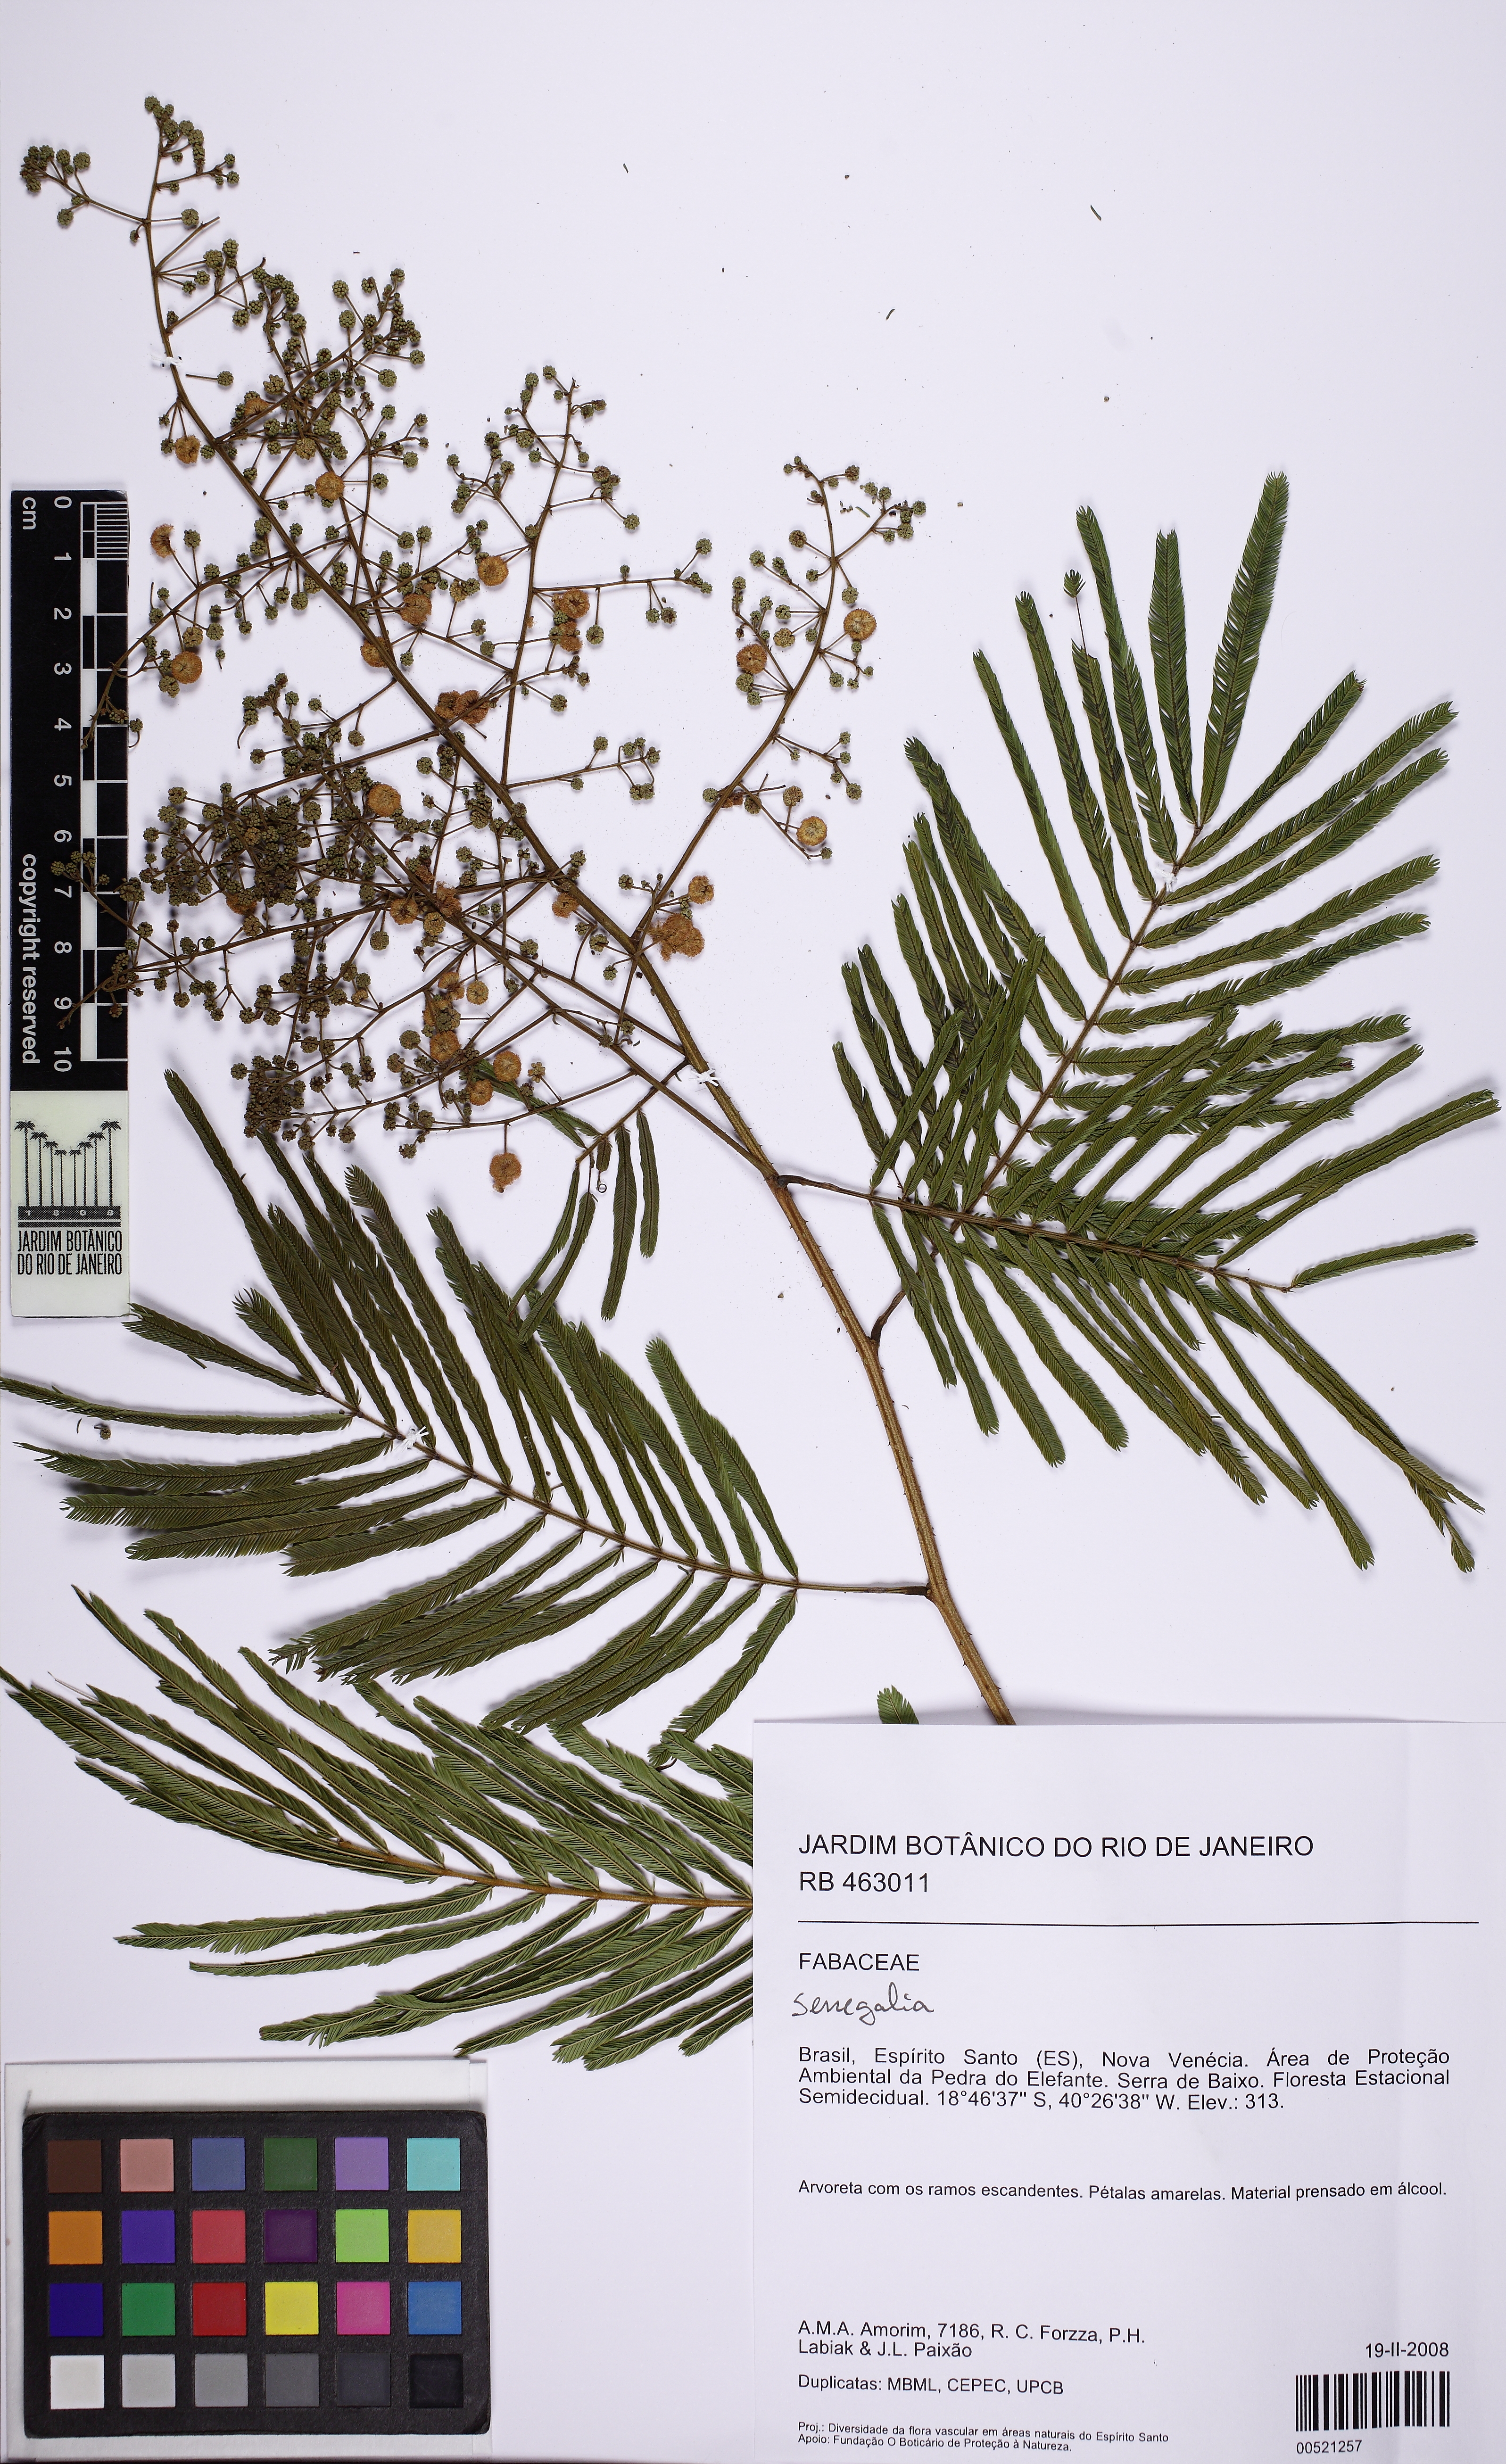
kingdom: Plantae
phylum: Tracheophyta
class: Magnoliopsida
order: Fabales
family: Fabaceae
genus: Senegalia
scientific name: Senegalia tenuifolia
